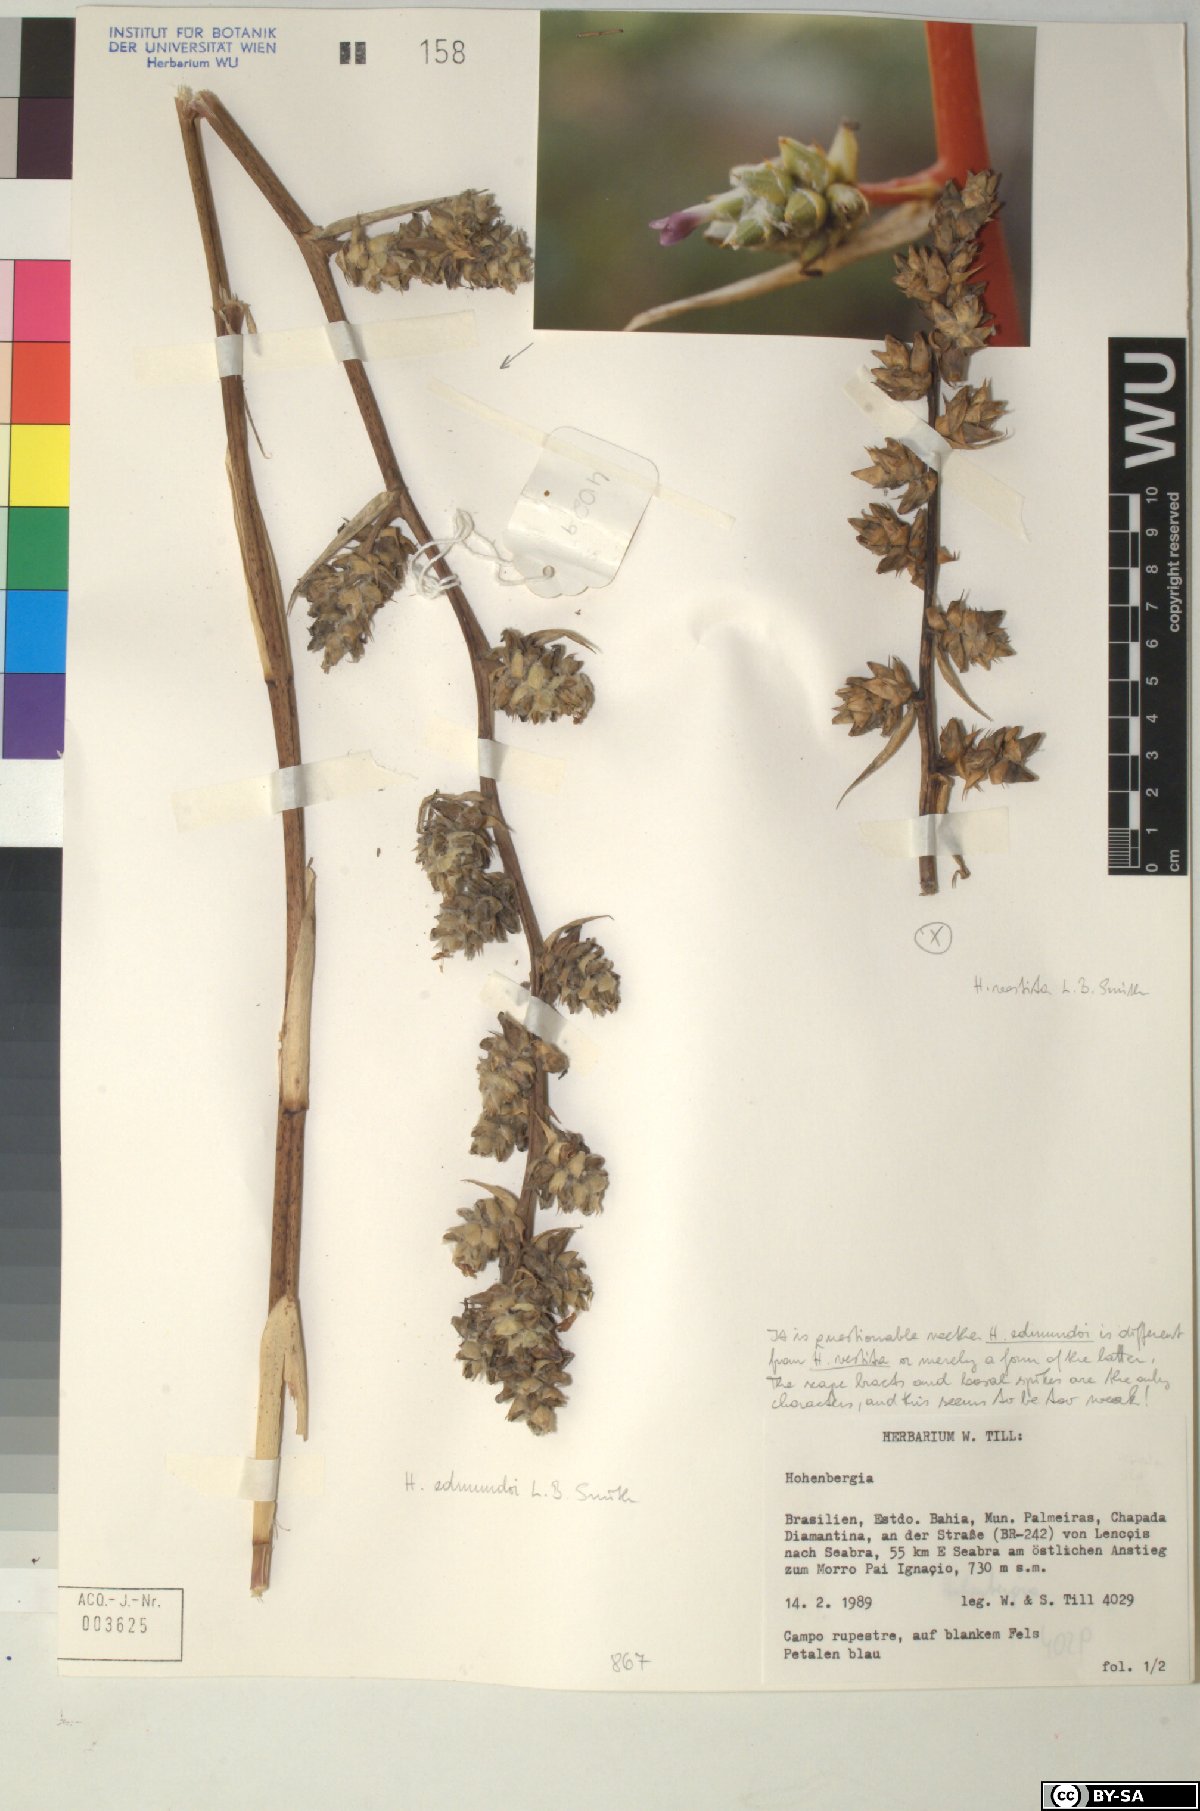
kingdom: Plantae
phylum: Tracheophyta
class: Liliopsida
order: Poales
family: Bromeliaceae
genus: Hohenbergia
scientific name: Hohenbergia
